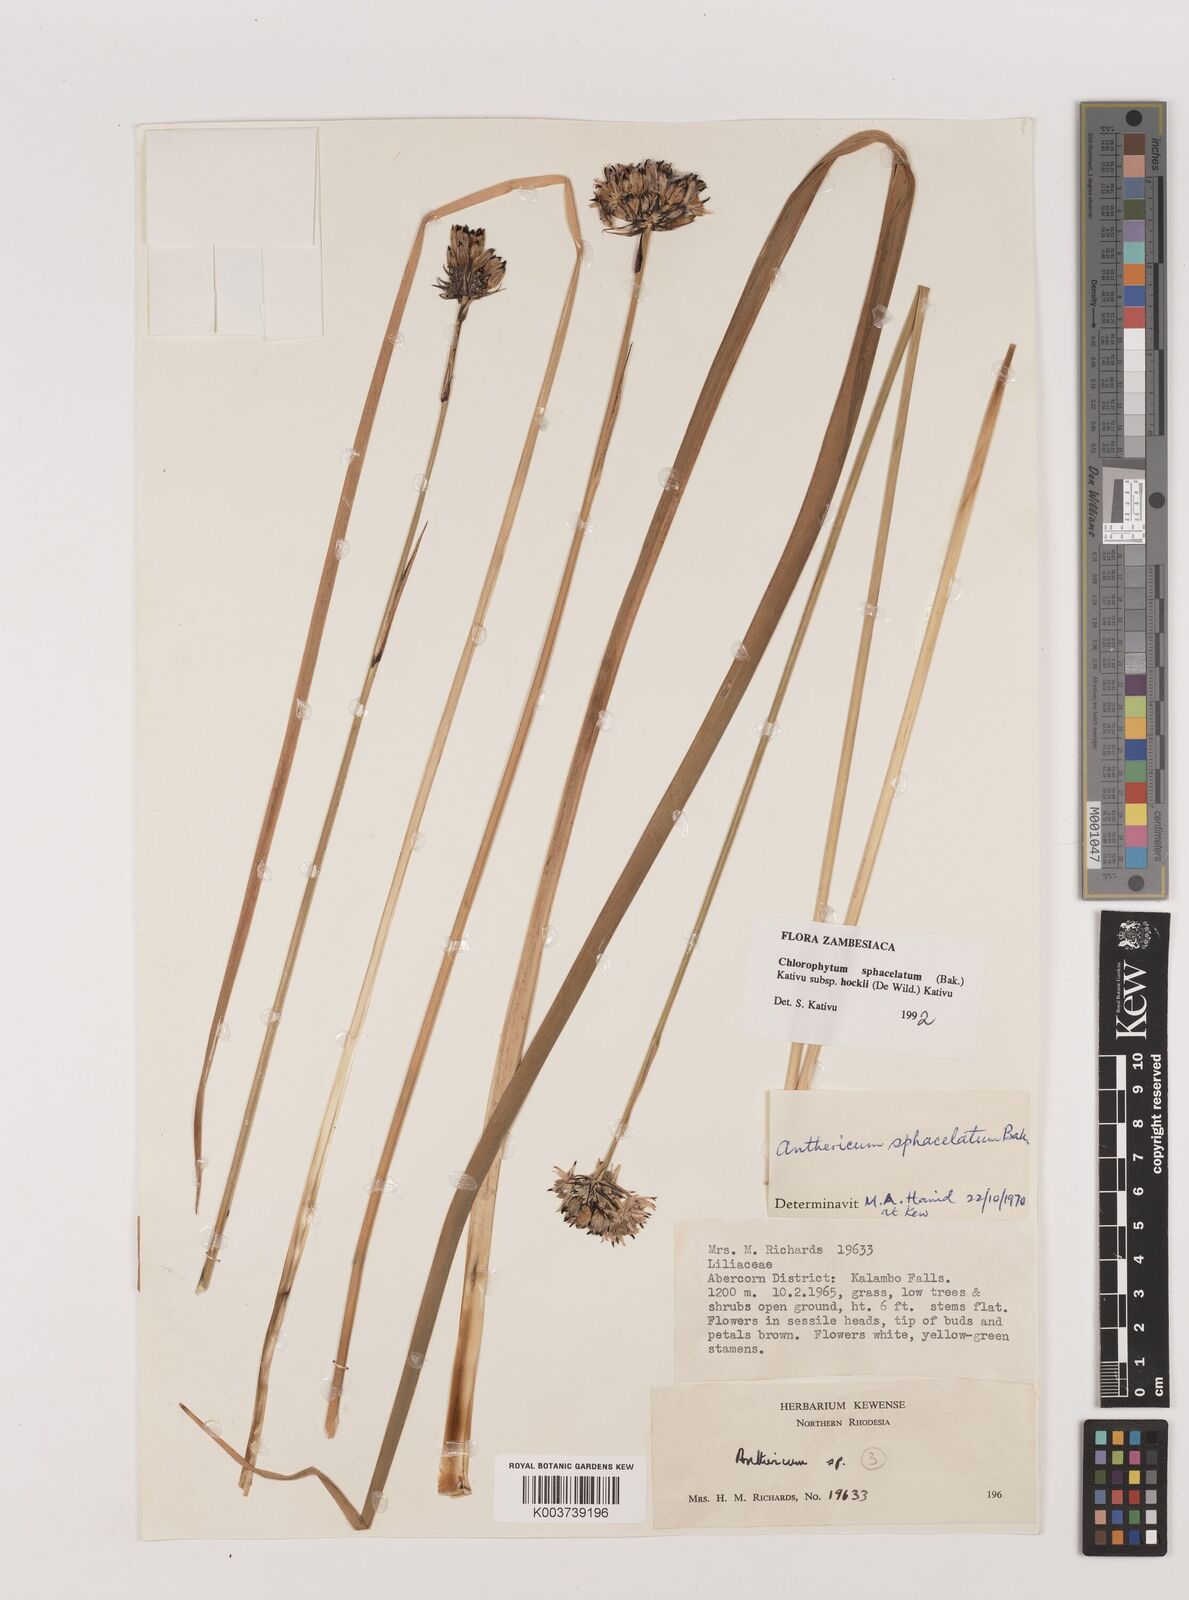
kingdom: Plantae
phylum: Tracheophyta
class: Liliopsida
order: Asparagales
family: Asparagaceae
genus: Chlorophytum
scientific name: Chlorophytum sphacelatum
